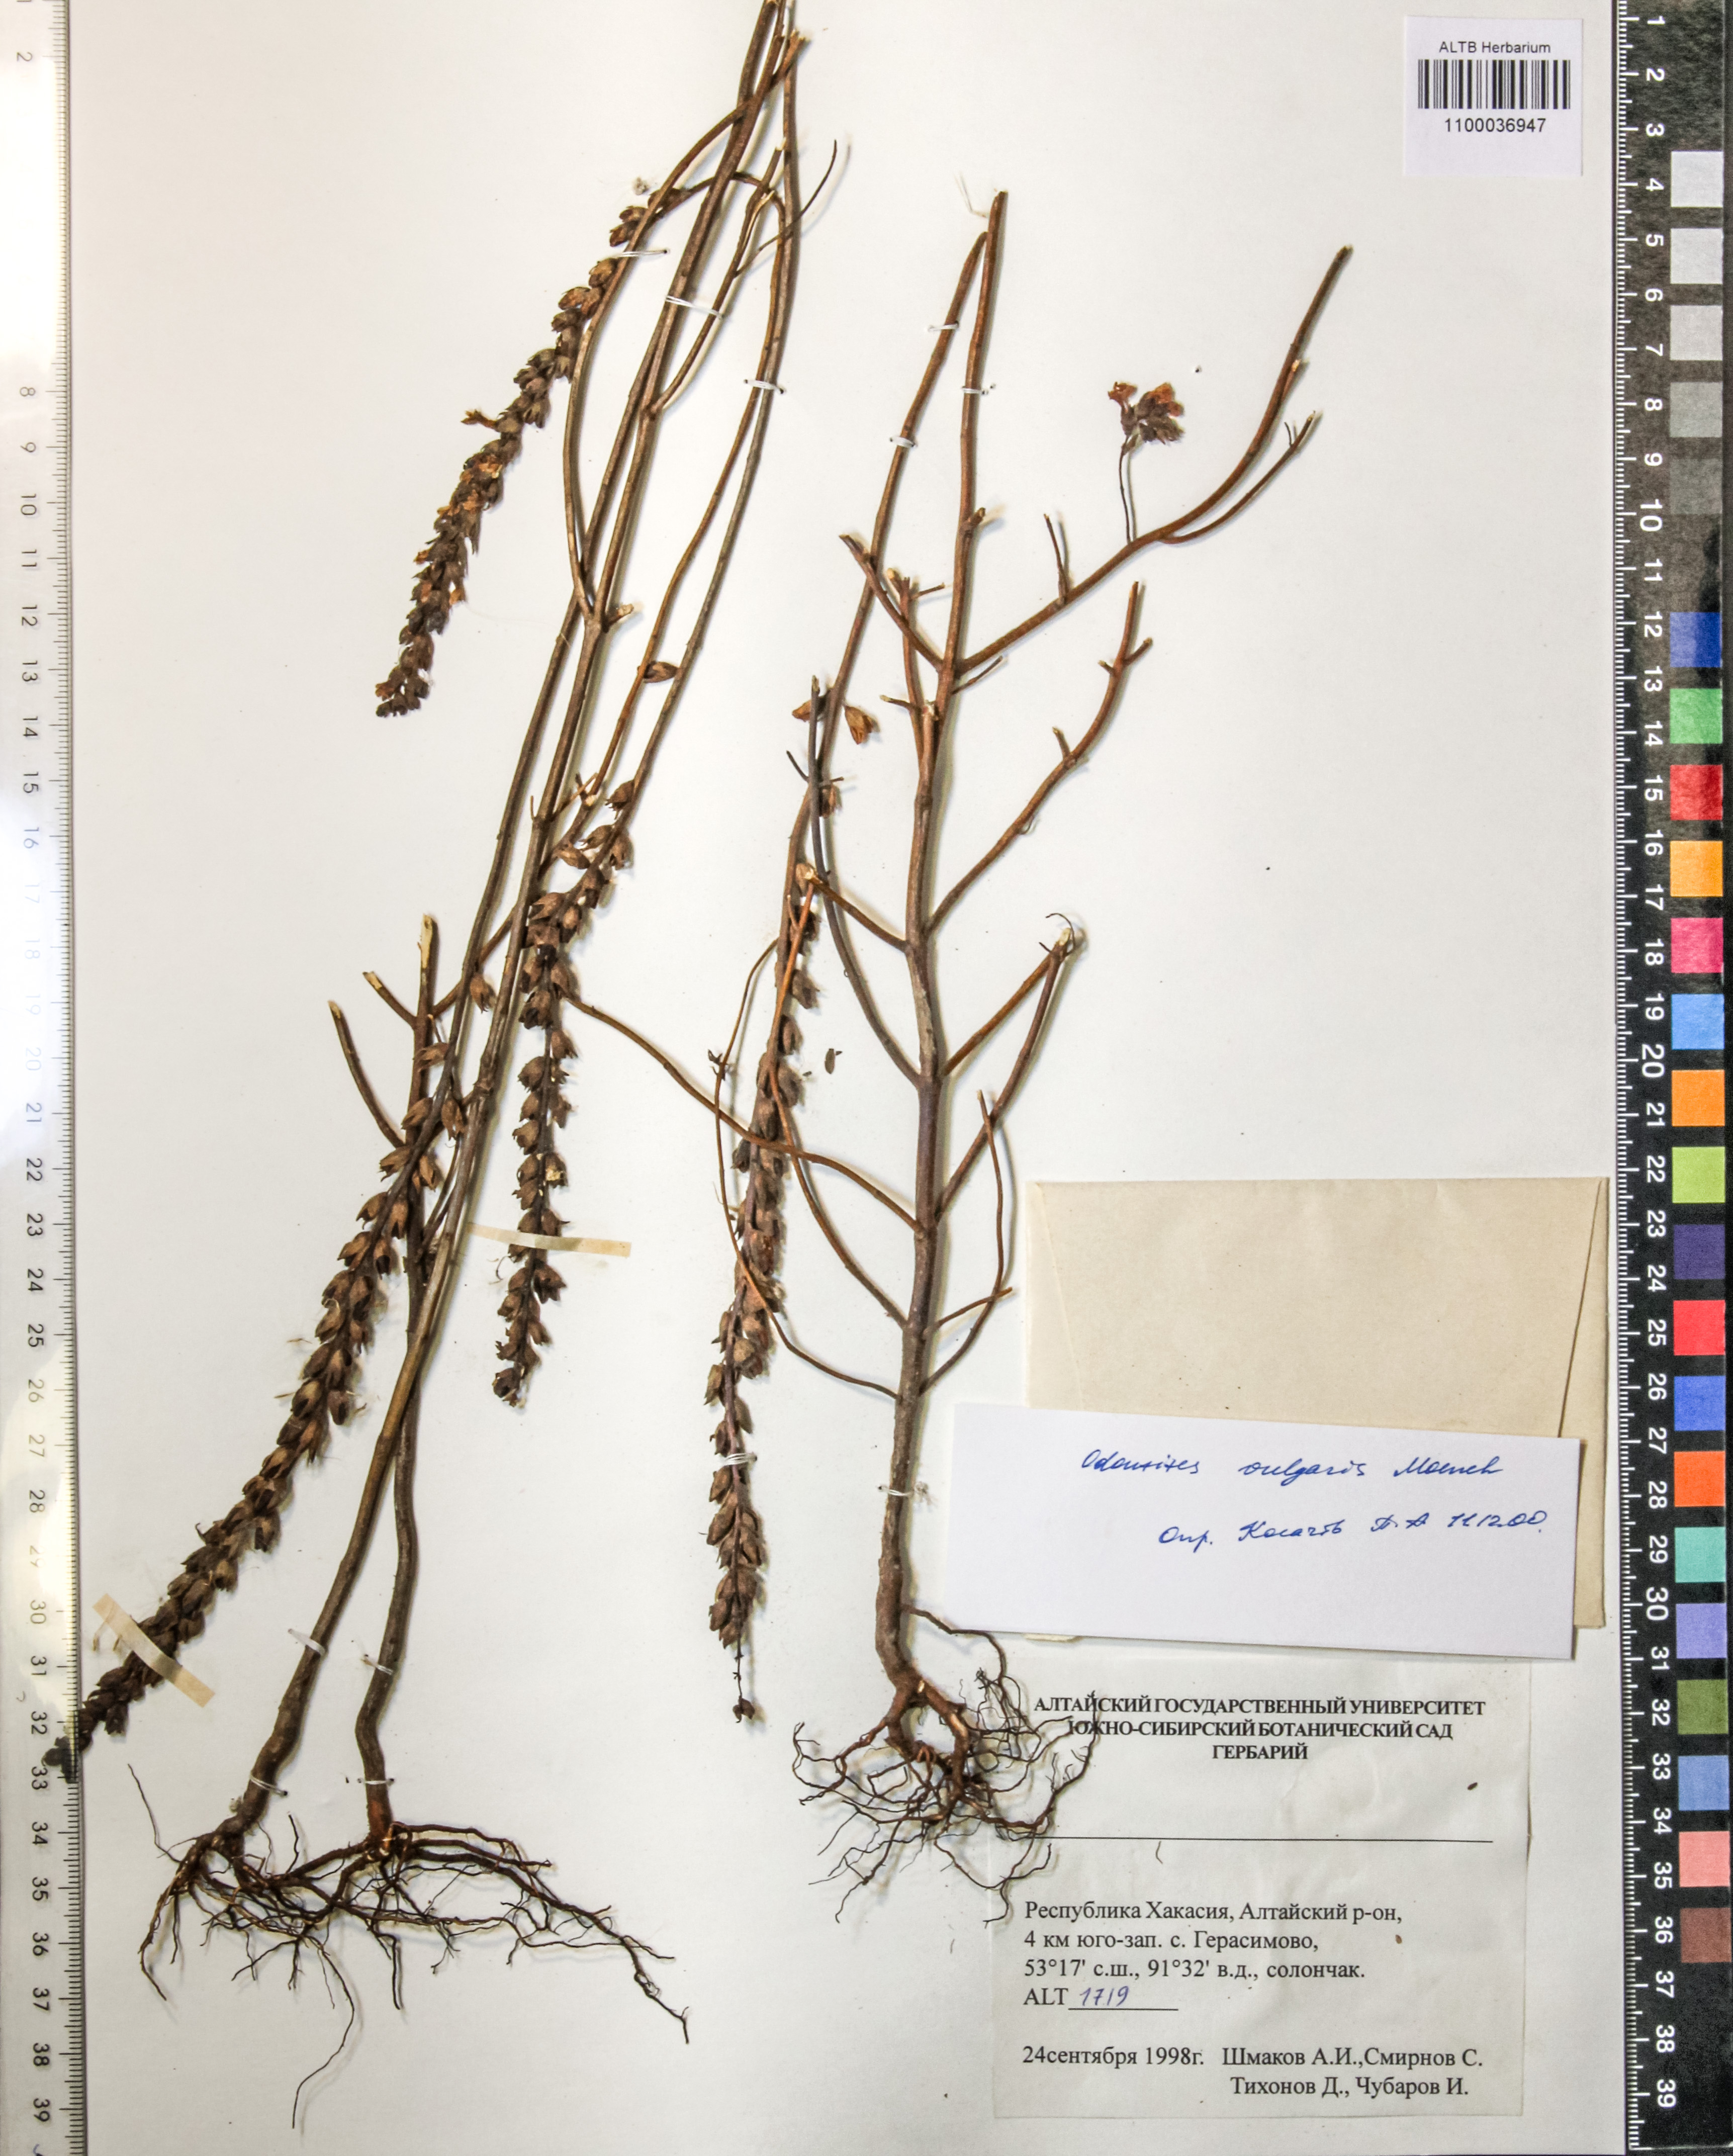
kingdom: Plantae
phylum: Tracheophyta
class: Magnoliopsida
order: Lamiales
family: Orobanchaceae
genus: Odontites
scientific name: Odontites vulgaris
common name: Broomrape
